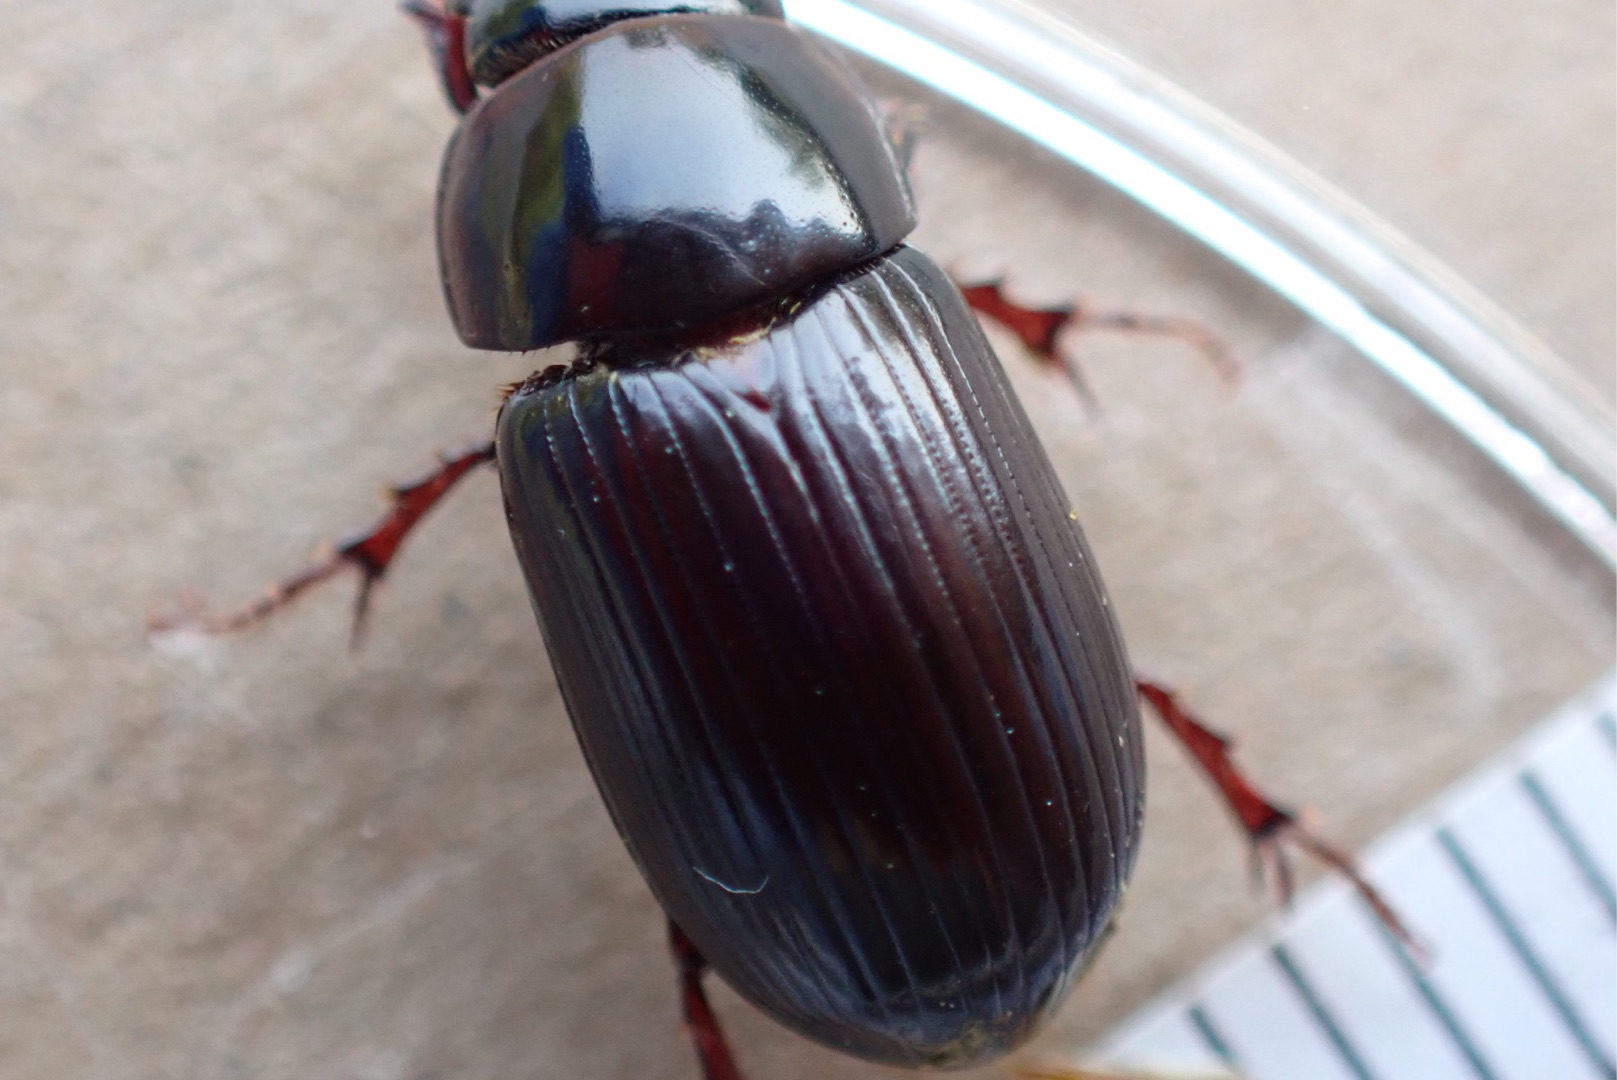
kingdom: Animalia
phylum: Arthropoda
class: Insecta
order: Coleoptera
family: Scarabaeidae
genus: Acrossus
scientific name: Acrossus rufipes
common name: Rødbenet møgbille
